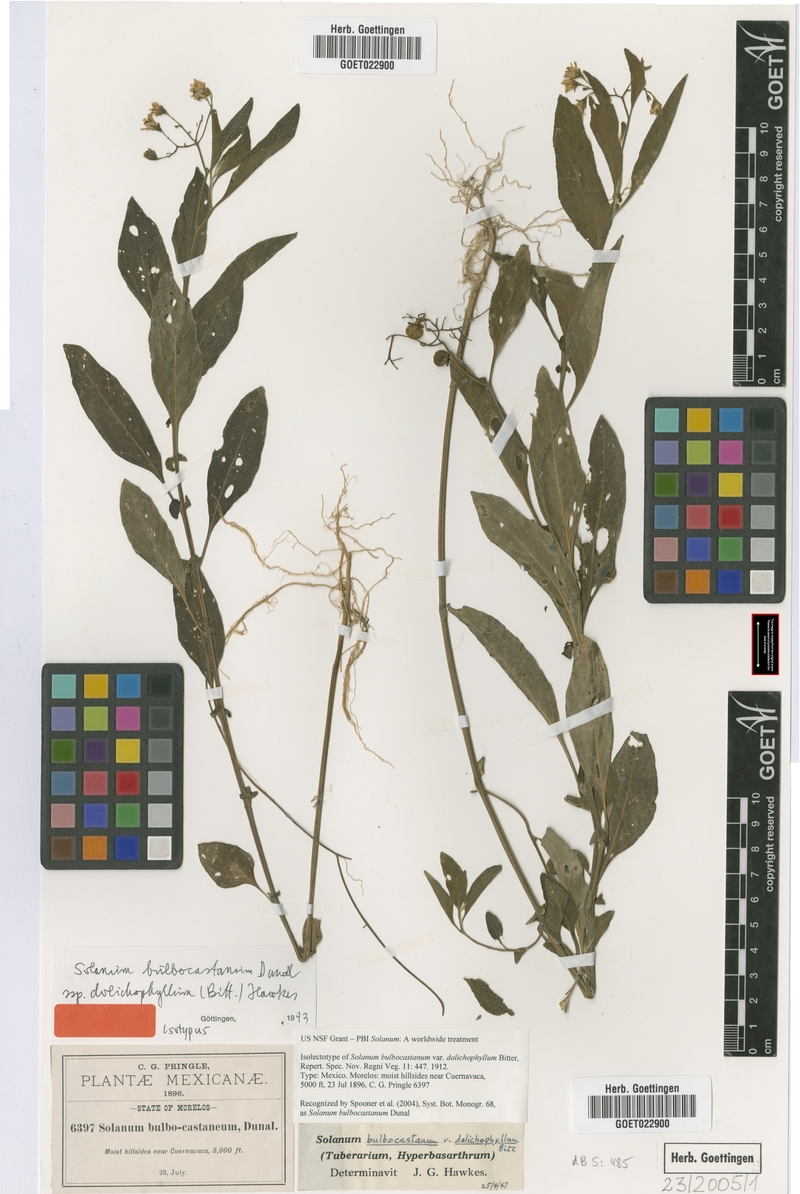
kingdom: Plantae
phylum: Tracheophyta
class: Magnoliopsida
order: Solanales
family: Solanaceae
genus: Solanum
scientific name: Solanum bulbocastanum
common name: Ornamental nightshade
